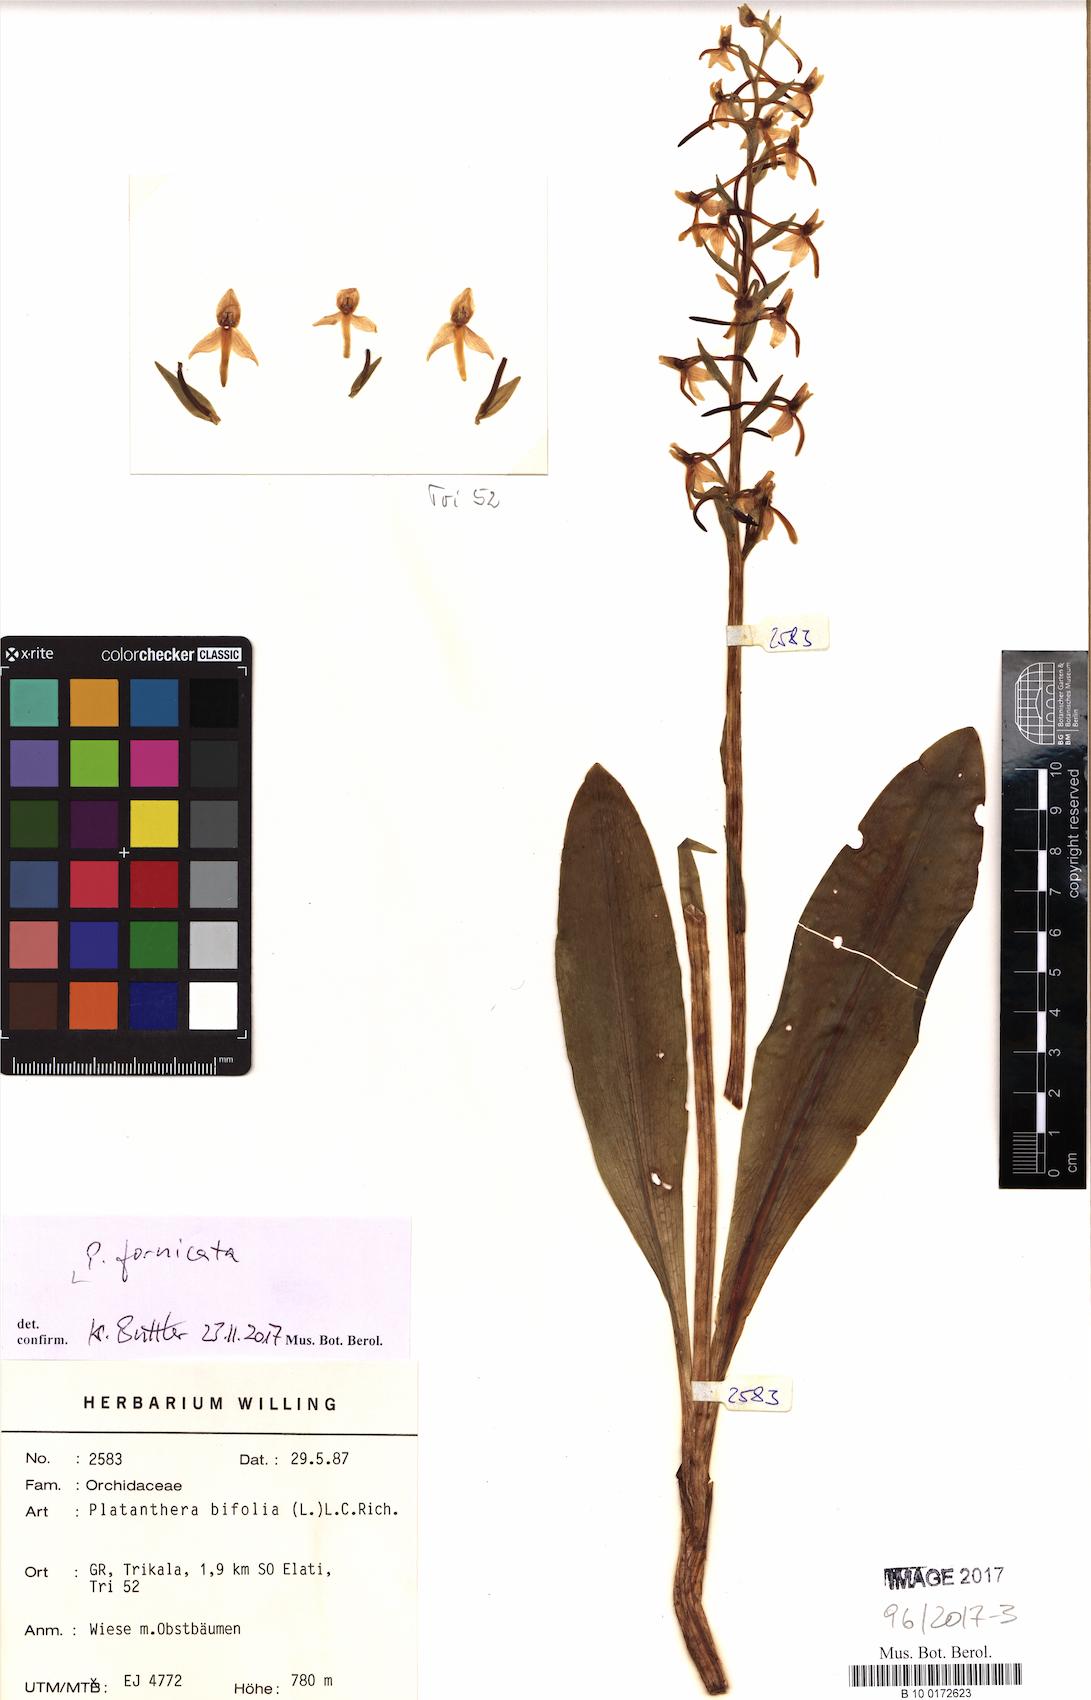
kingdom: Plantae
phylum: Tracheophyta
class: Liliopsida
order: Asparagales
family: Orchidaceae
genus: Platanthera
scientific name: Platanthera bifolia
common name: Lesser butterfly-orchid
